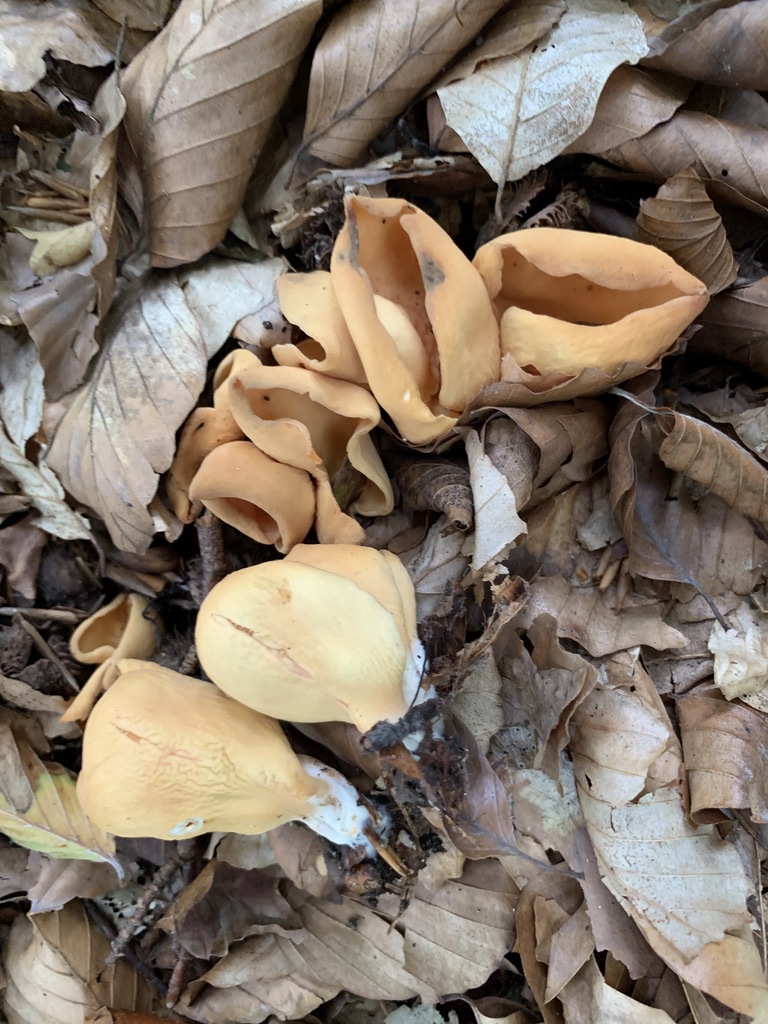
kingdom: Fungi
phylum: Ascomycota
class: Pezizomycetes
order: Pezizales
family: Otideaceae
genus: Otidea
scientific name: Otidea onotica
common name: æsel-ørebæger
